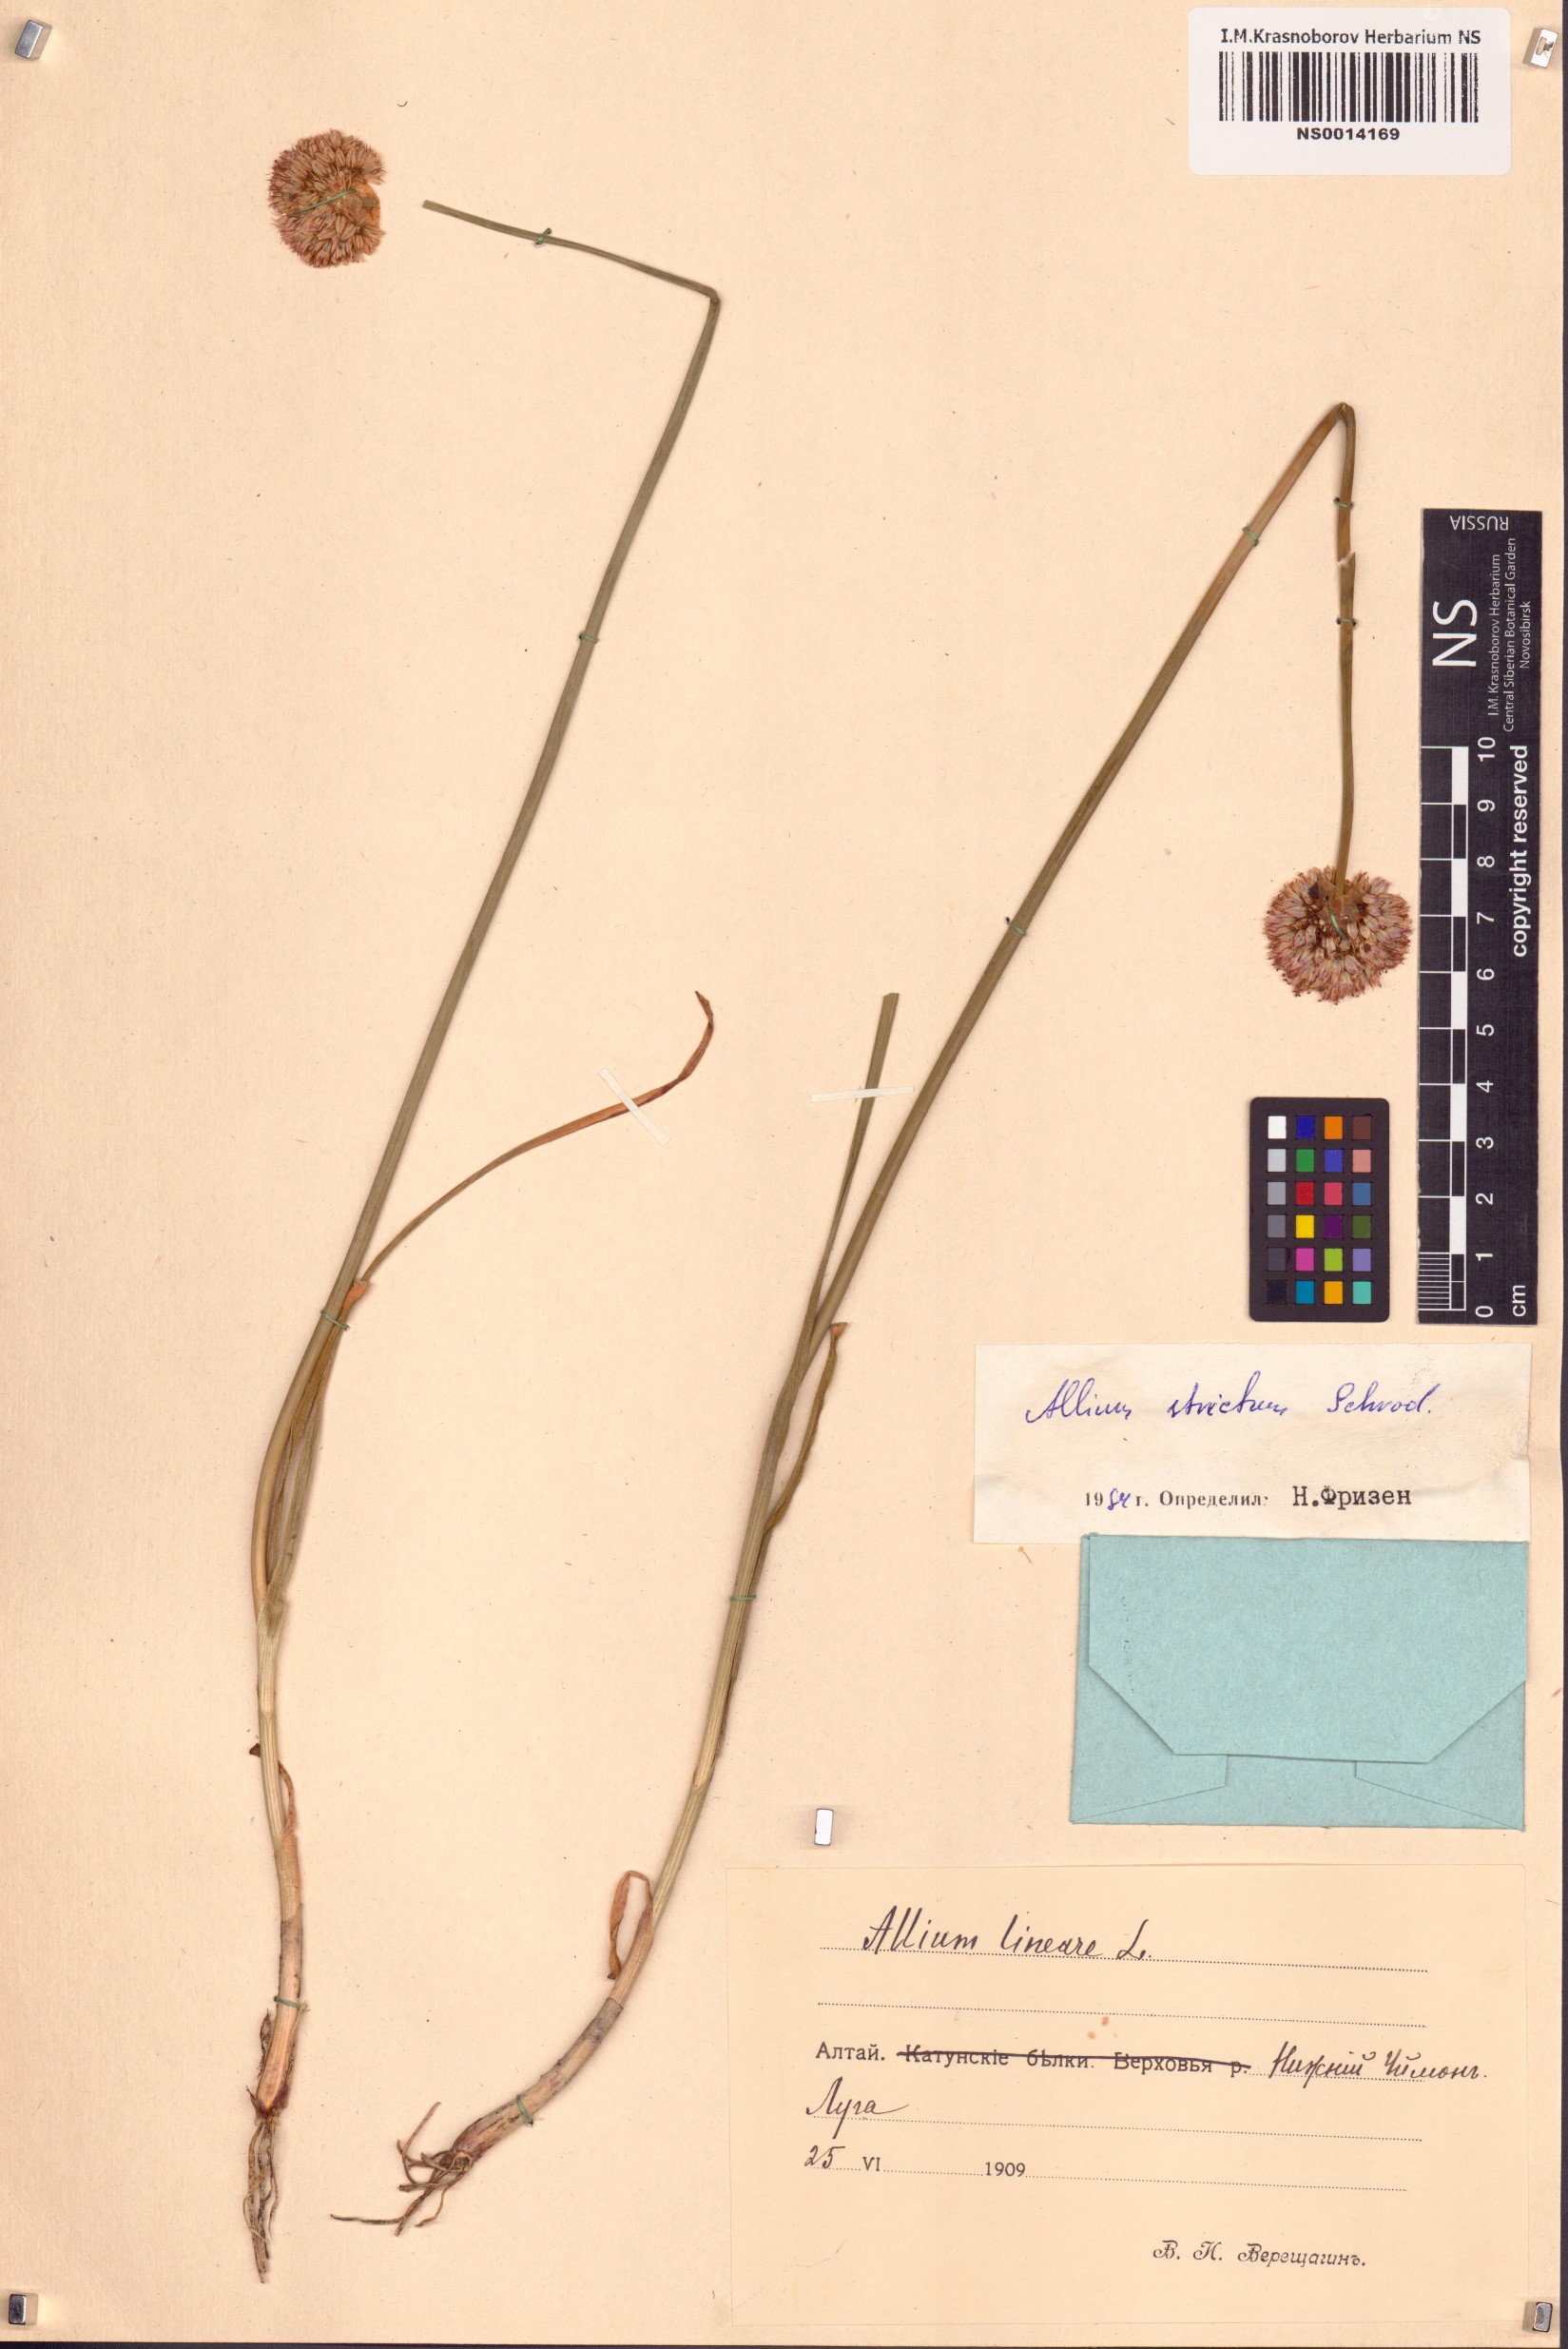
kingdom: Plantae
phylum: Tracheophyta
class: Liliopsida
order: Asparagales
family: Amaryllidaceae
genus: Allium
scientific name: Allium strictum
